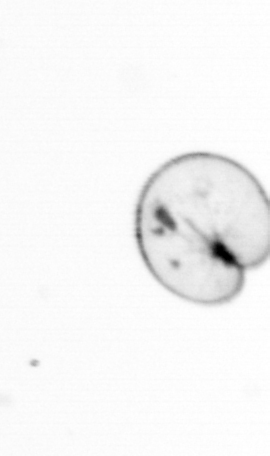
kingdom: Chromista
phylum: Myzozoa
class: Dinophyceae
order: Noctilucales
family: Noctilucaceae
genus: Noctiluca
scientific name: Noctiluca scintillans
